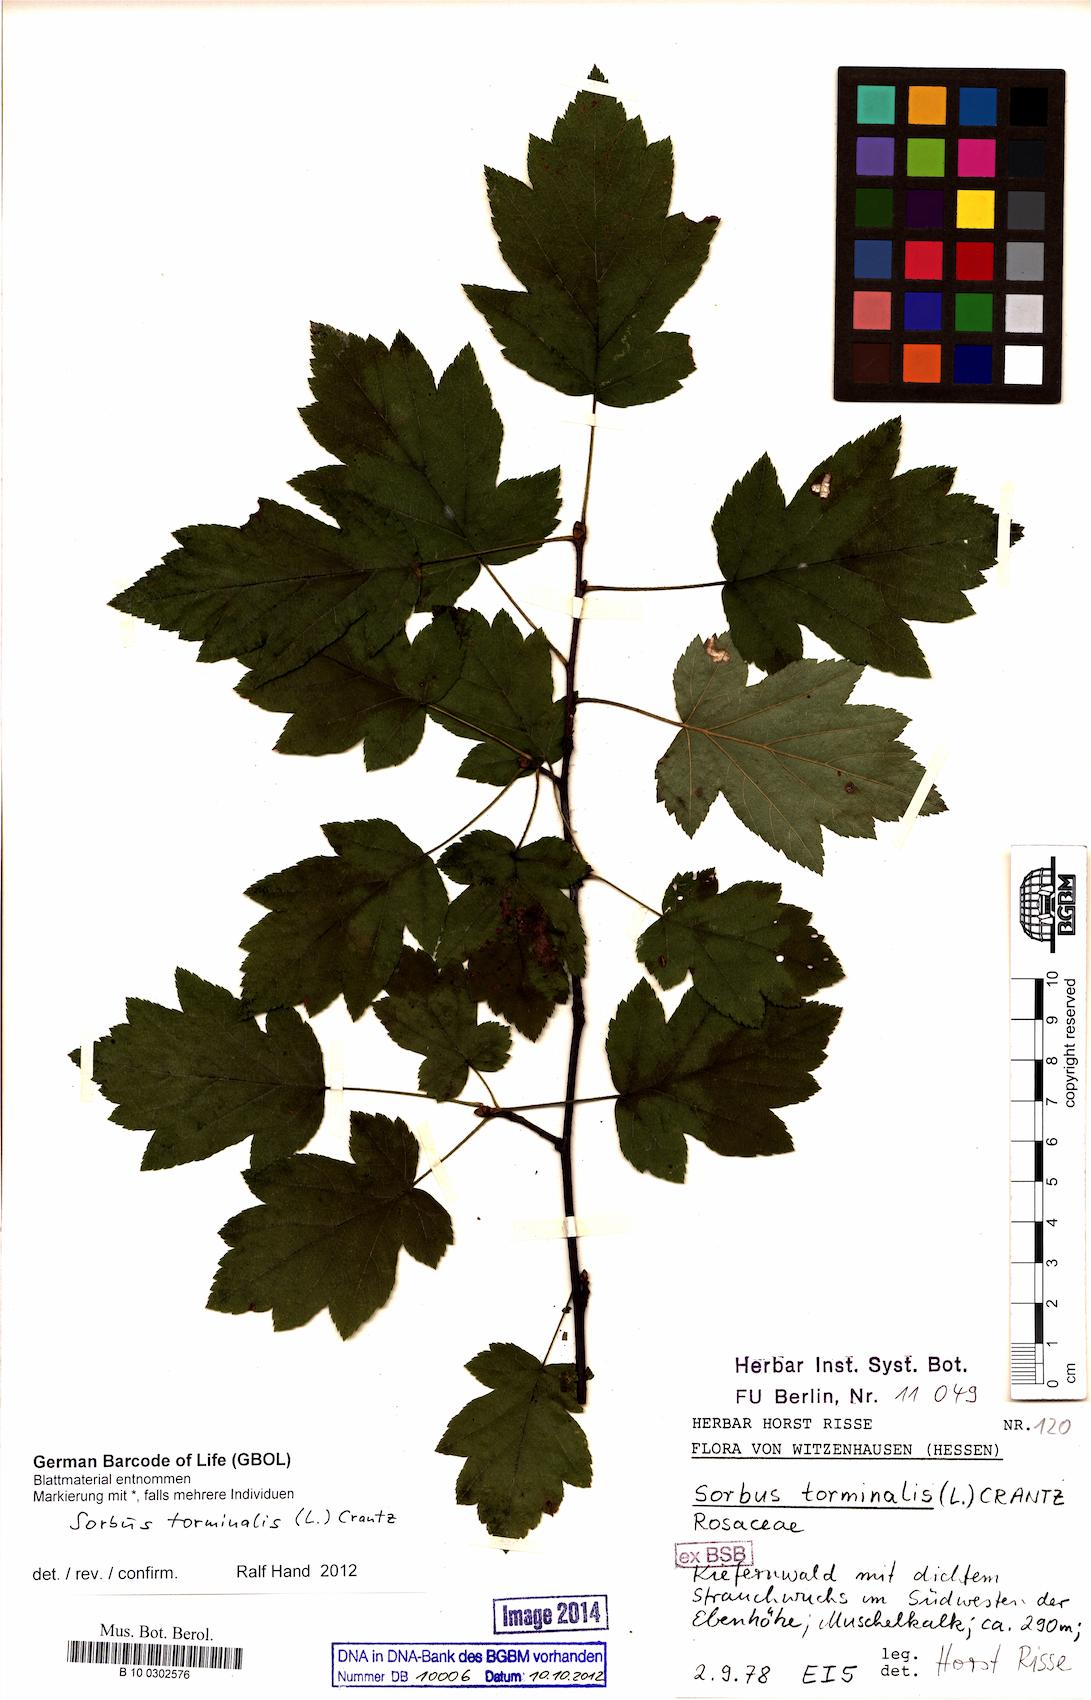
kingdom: Plantae
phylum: Tracheophyta
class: Magnoliopsida
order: Rosales
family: Rosaceae
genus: Torminalis
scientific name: Torminalis glaberrima
